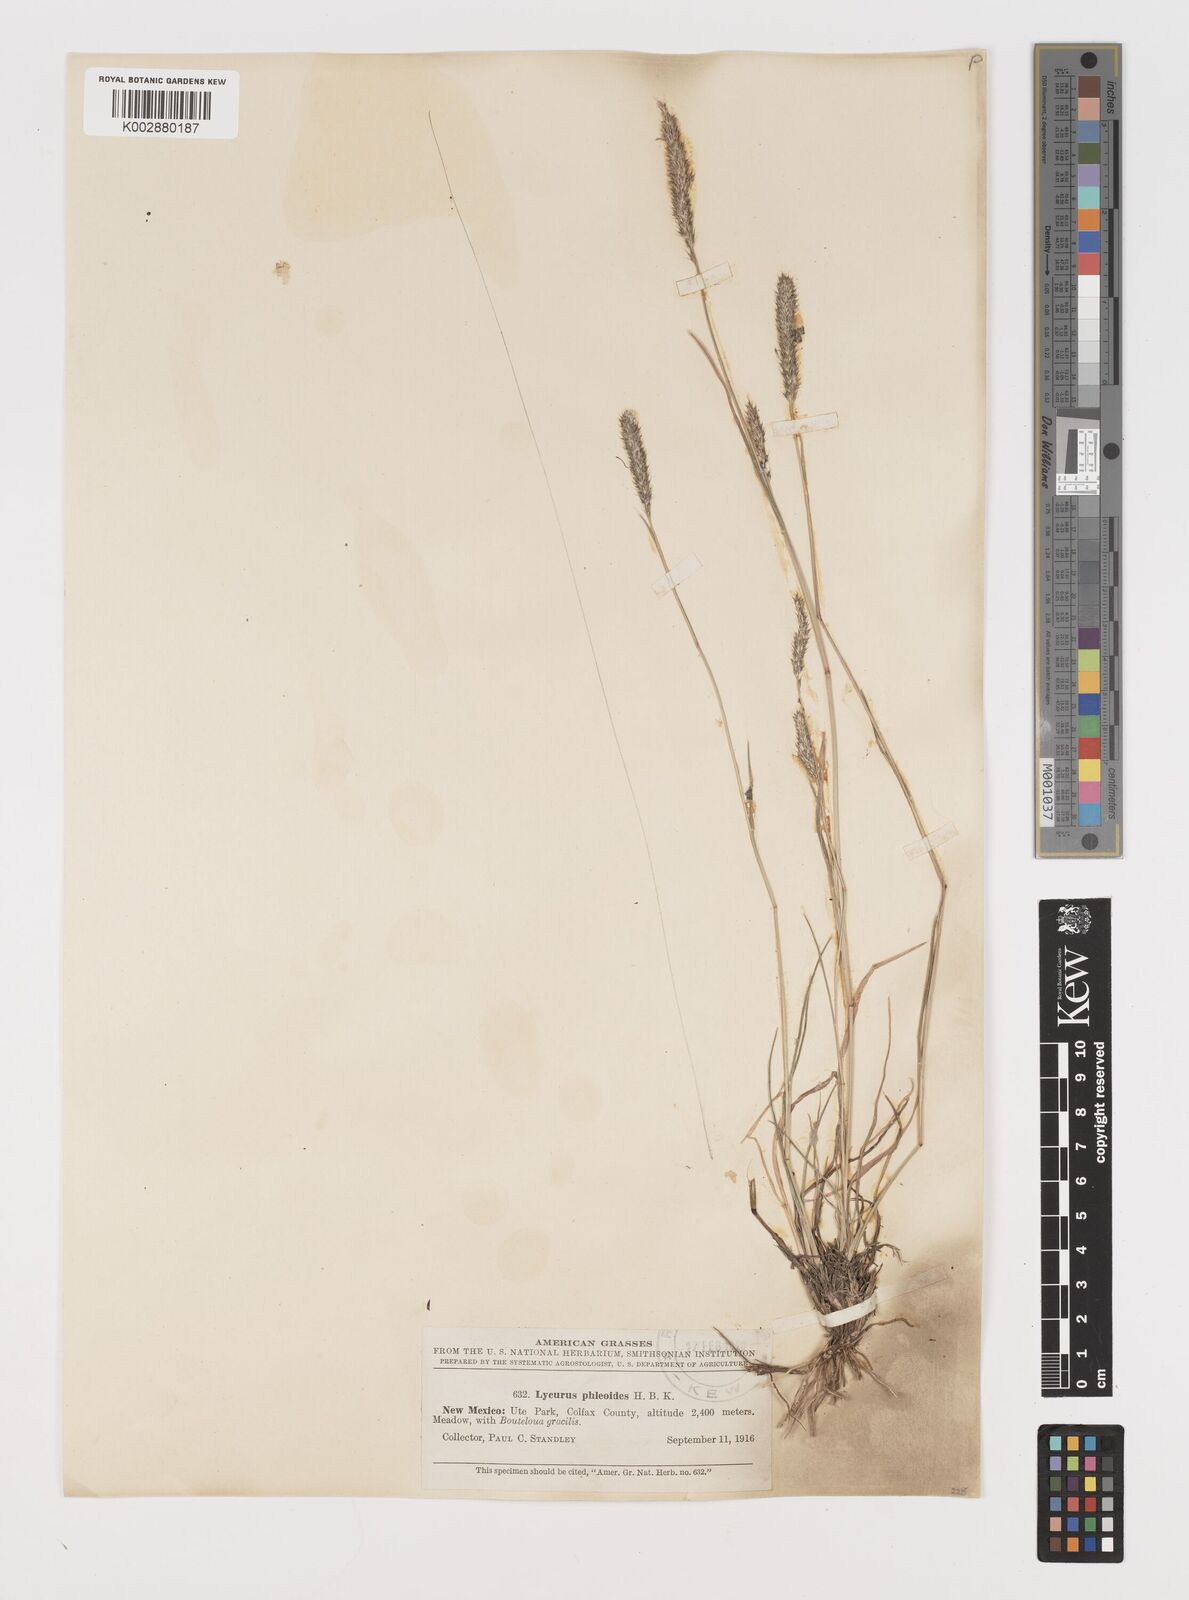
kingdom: Plantae
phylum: Tracheophyta
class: Liliopsida
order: Poales
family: Poaceae
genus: Muhlenbergia
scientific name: Muhlenbergia alopecuroides
